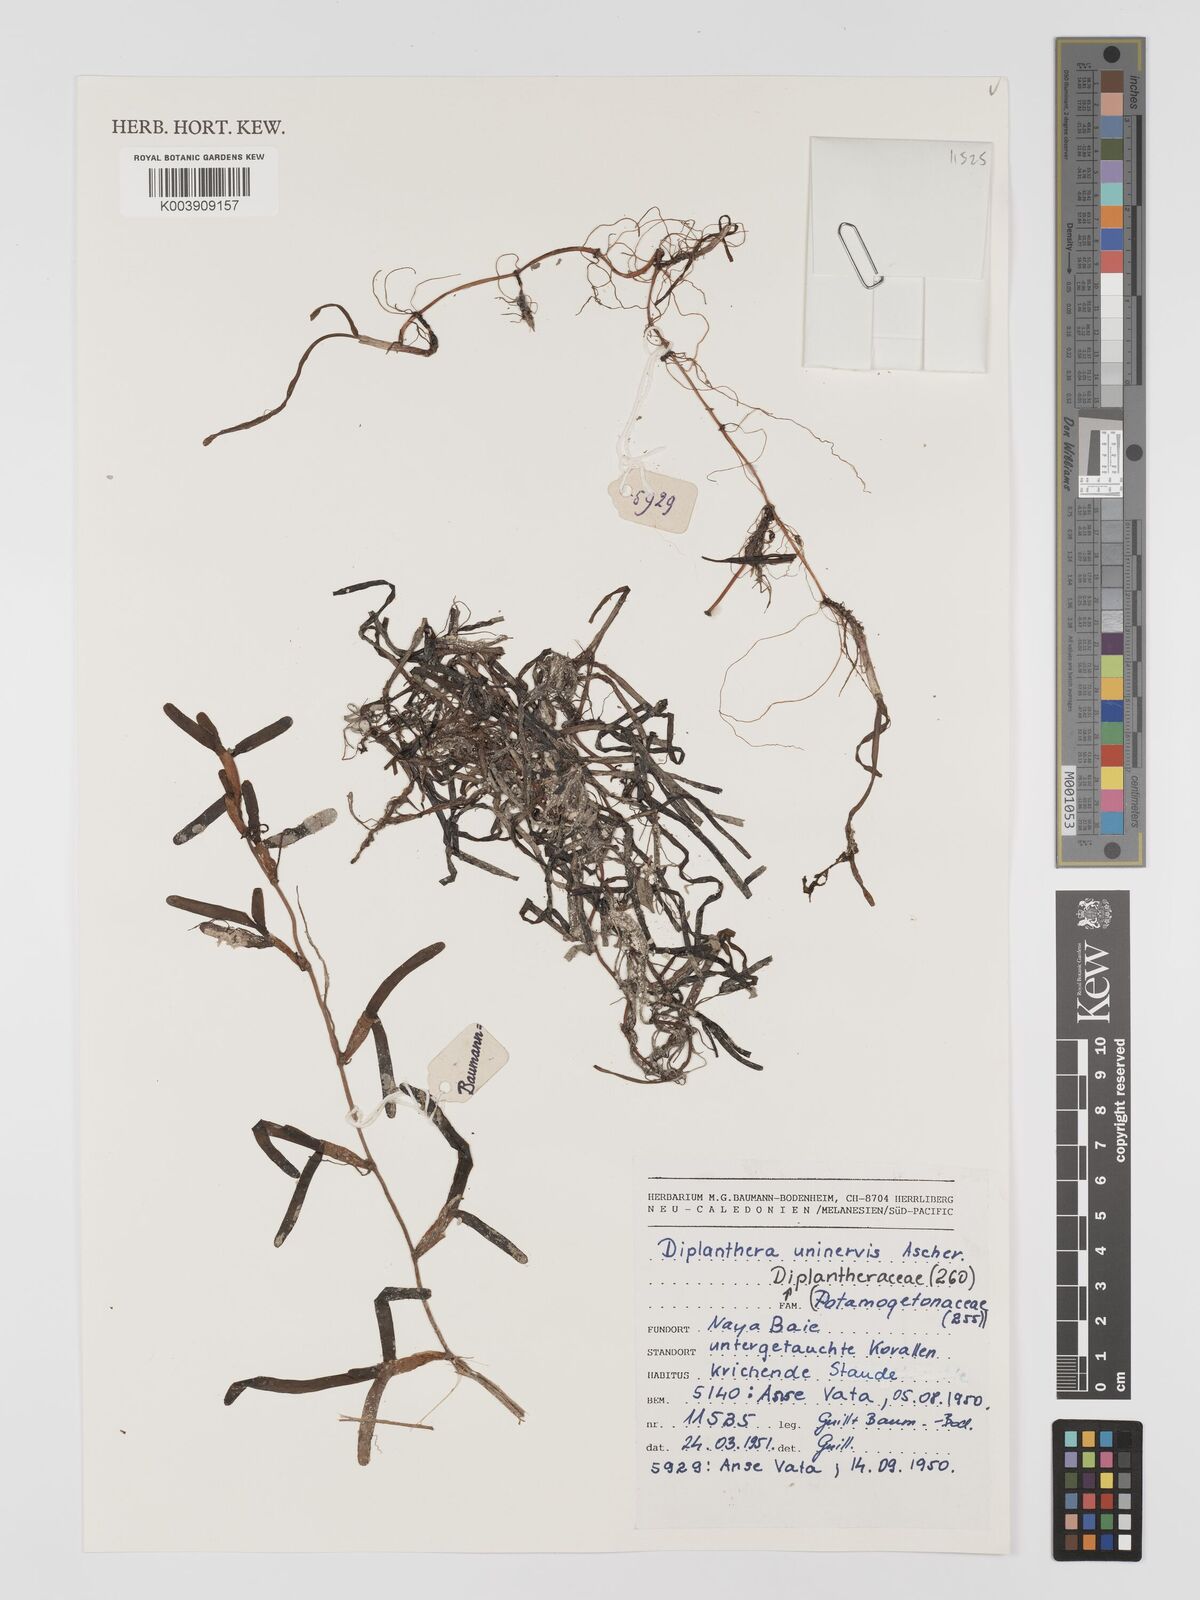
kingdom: Plantae
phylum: Tracheophyta
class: Liliopsida
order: Alismatales
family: Cymodoceaceae
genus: Halodule
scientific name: Halodule uninervis
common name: Narrowleaf seagrass
